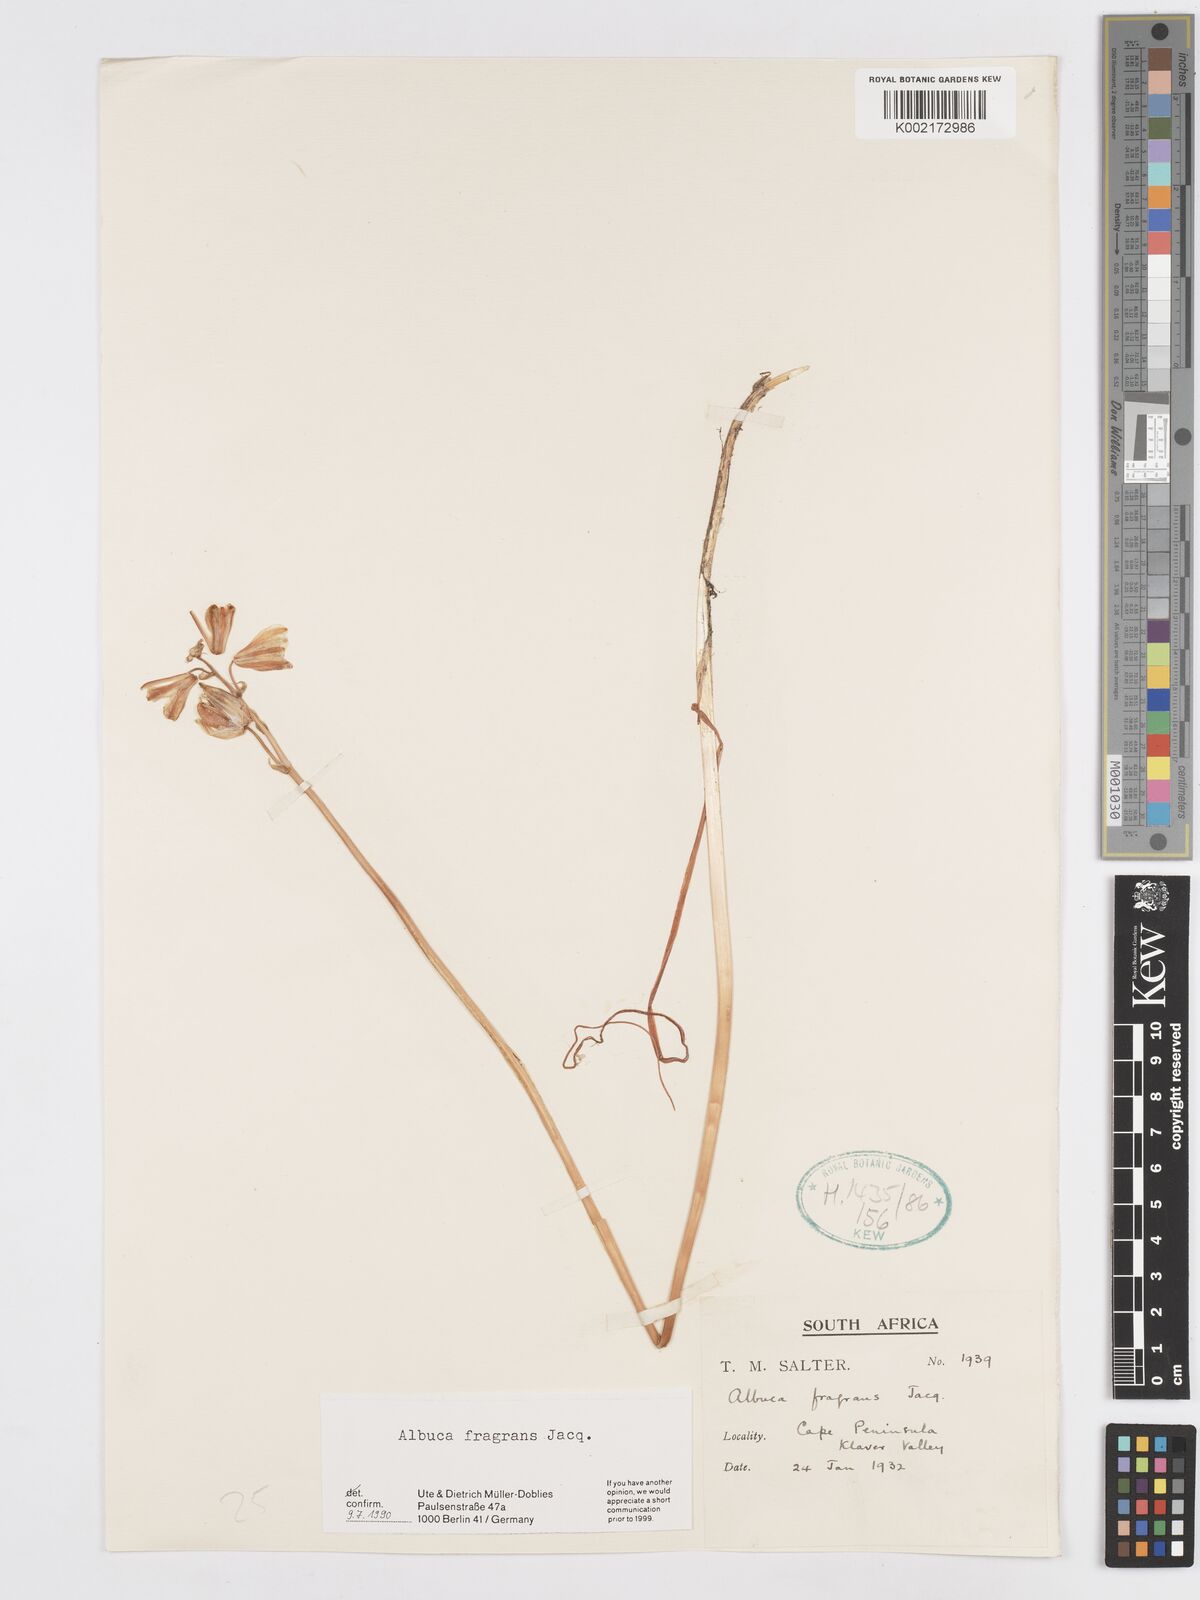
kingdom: Plantae
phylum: Tracheophyta
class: Liliopsida
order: Asparagales
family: Asparagaceae
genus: Albuca
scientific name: Albuca fragrans
